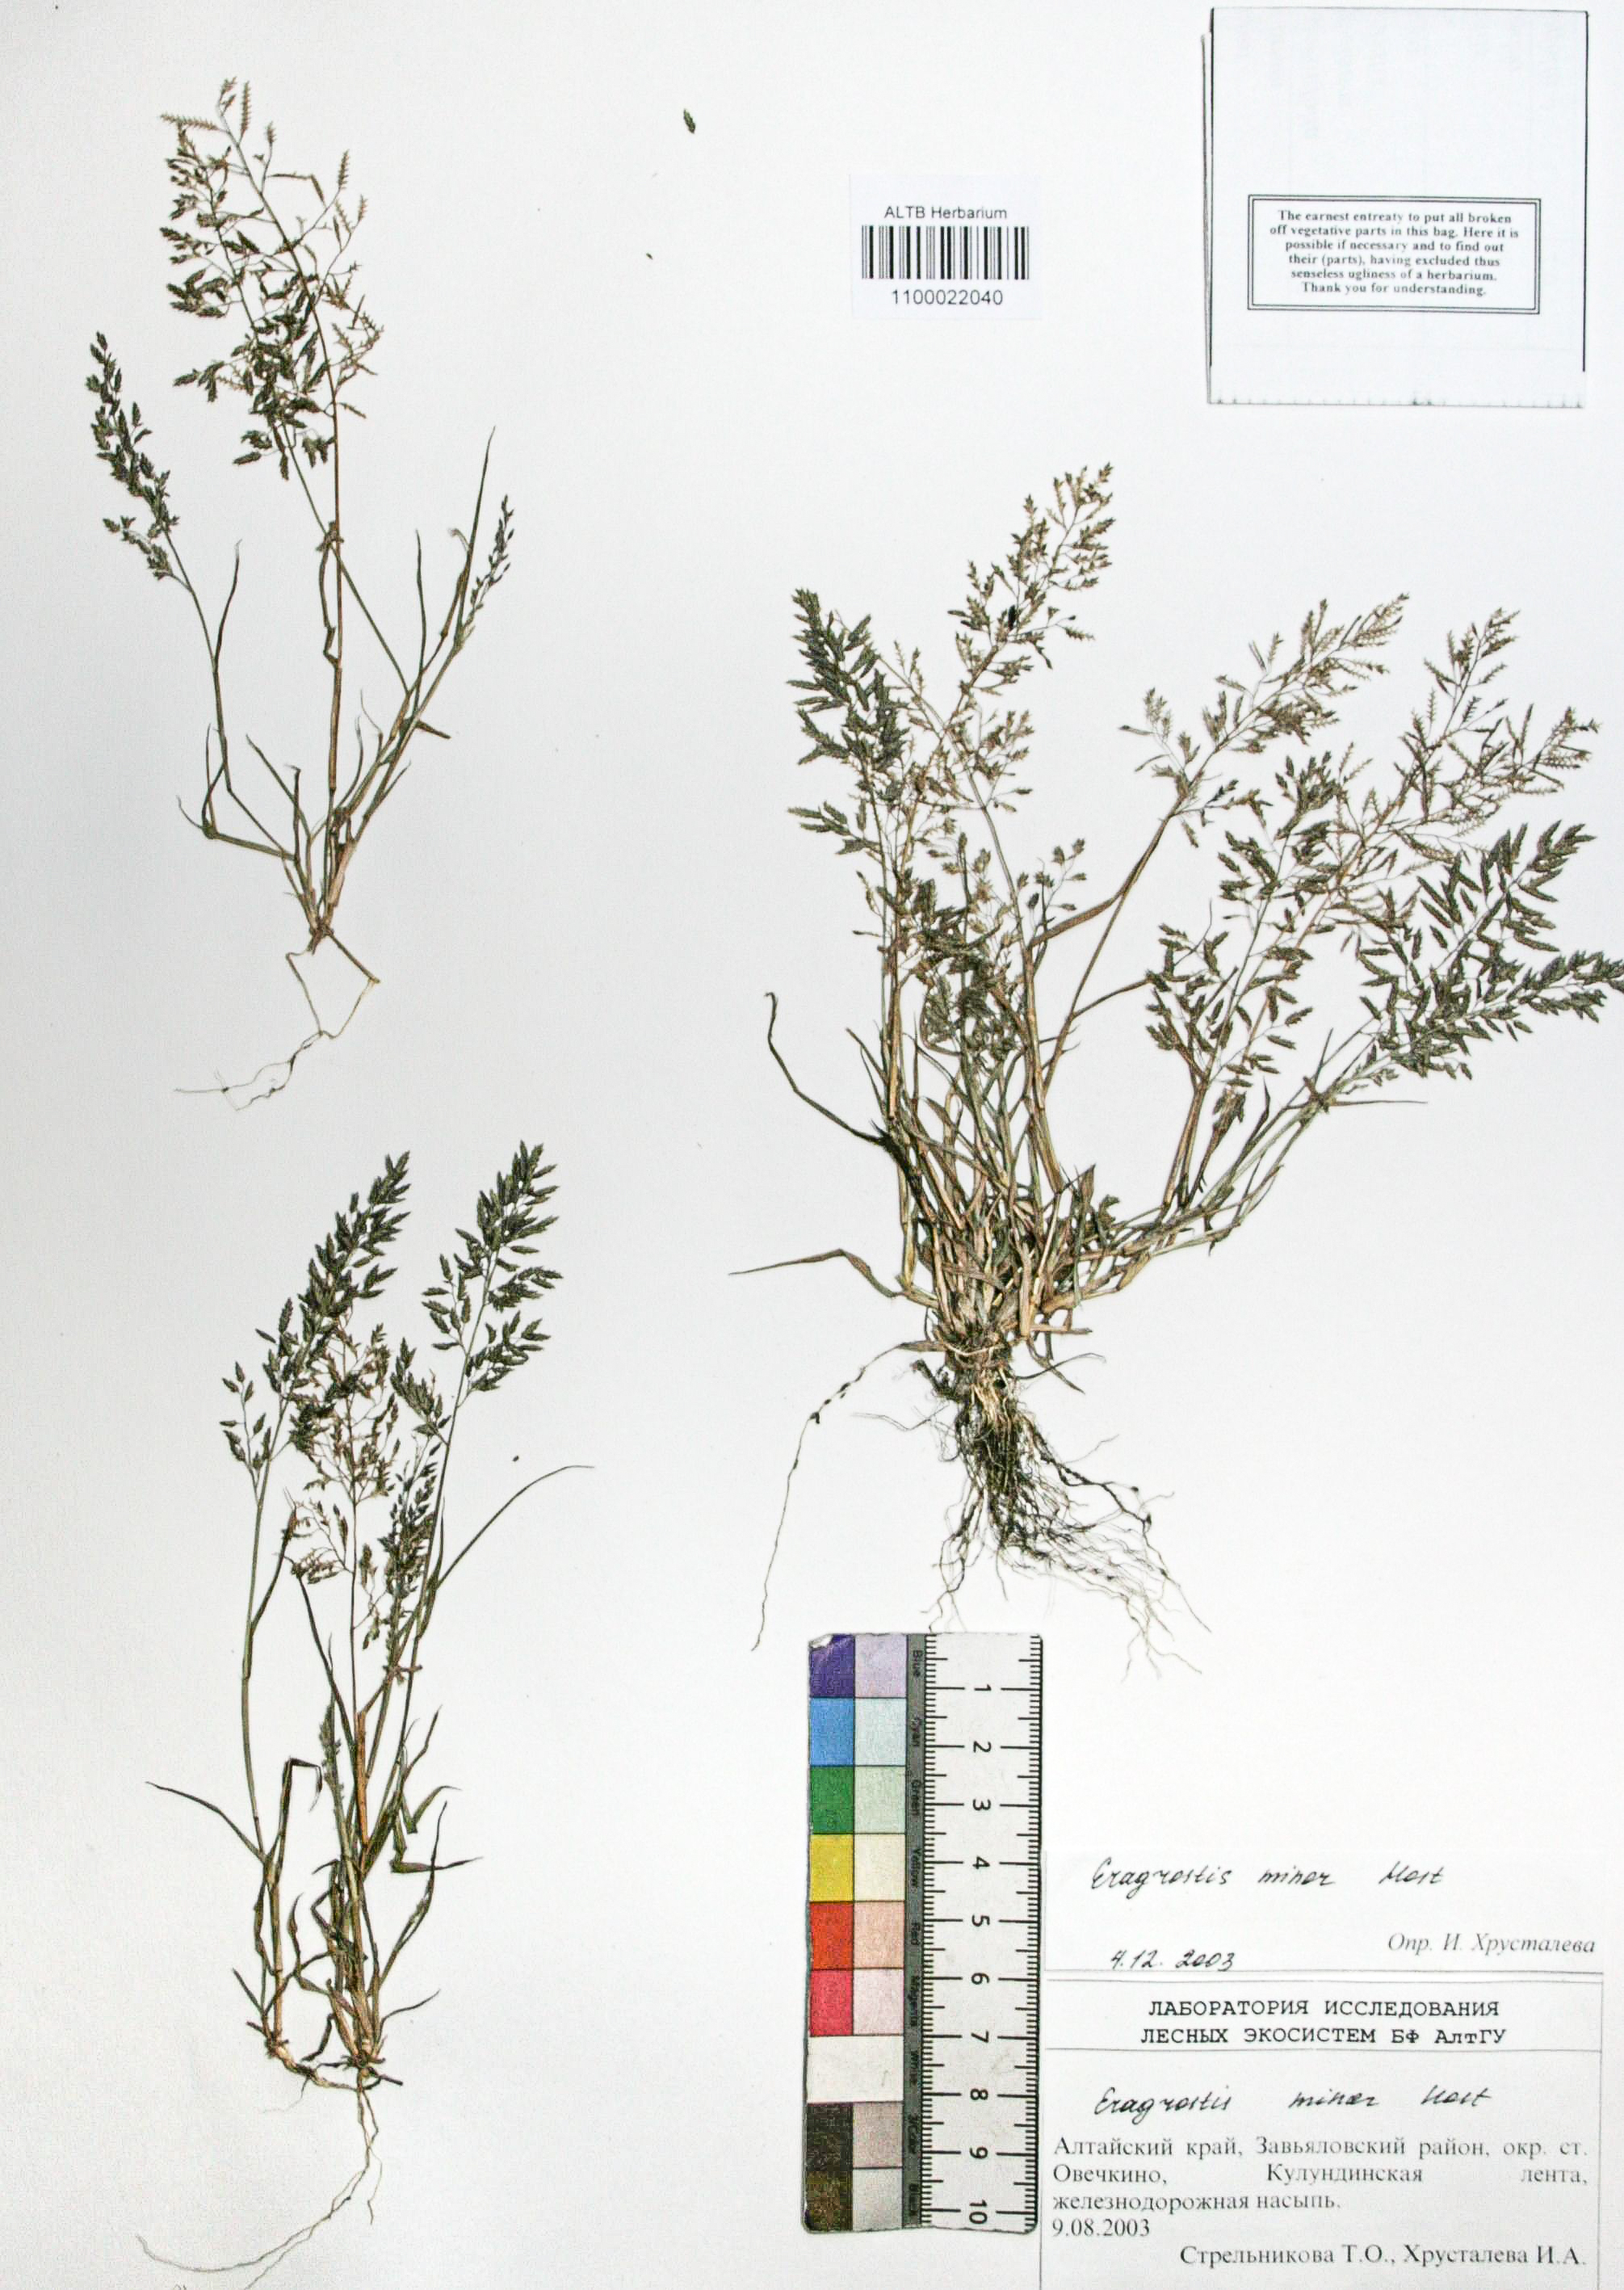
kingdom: Plantae
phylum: Tracheophyta
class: Liliopsida
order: Poales
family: Poaceae
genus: Eragrostis
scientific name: Eragrostis minor
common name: Small love-grass
